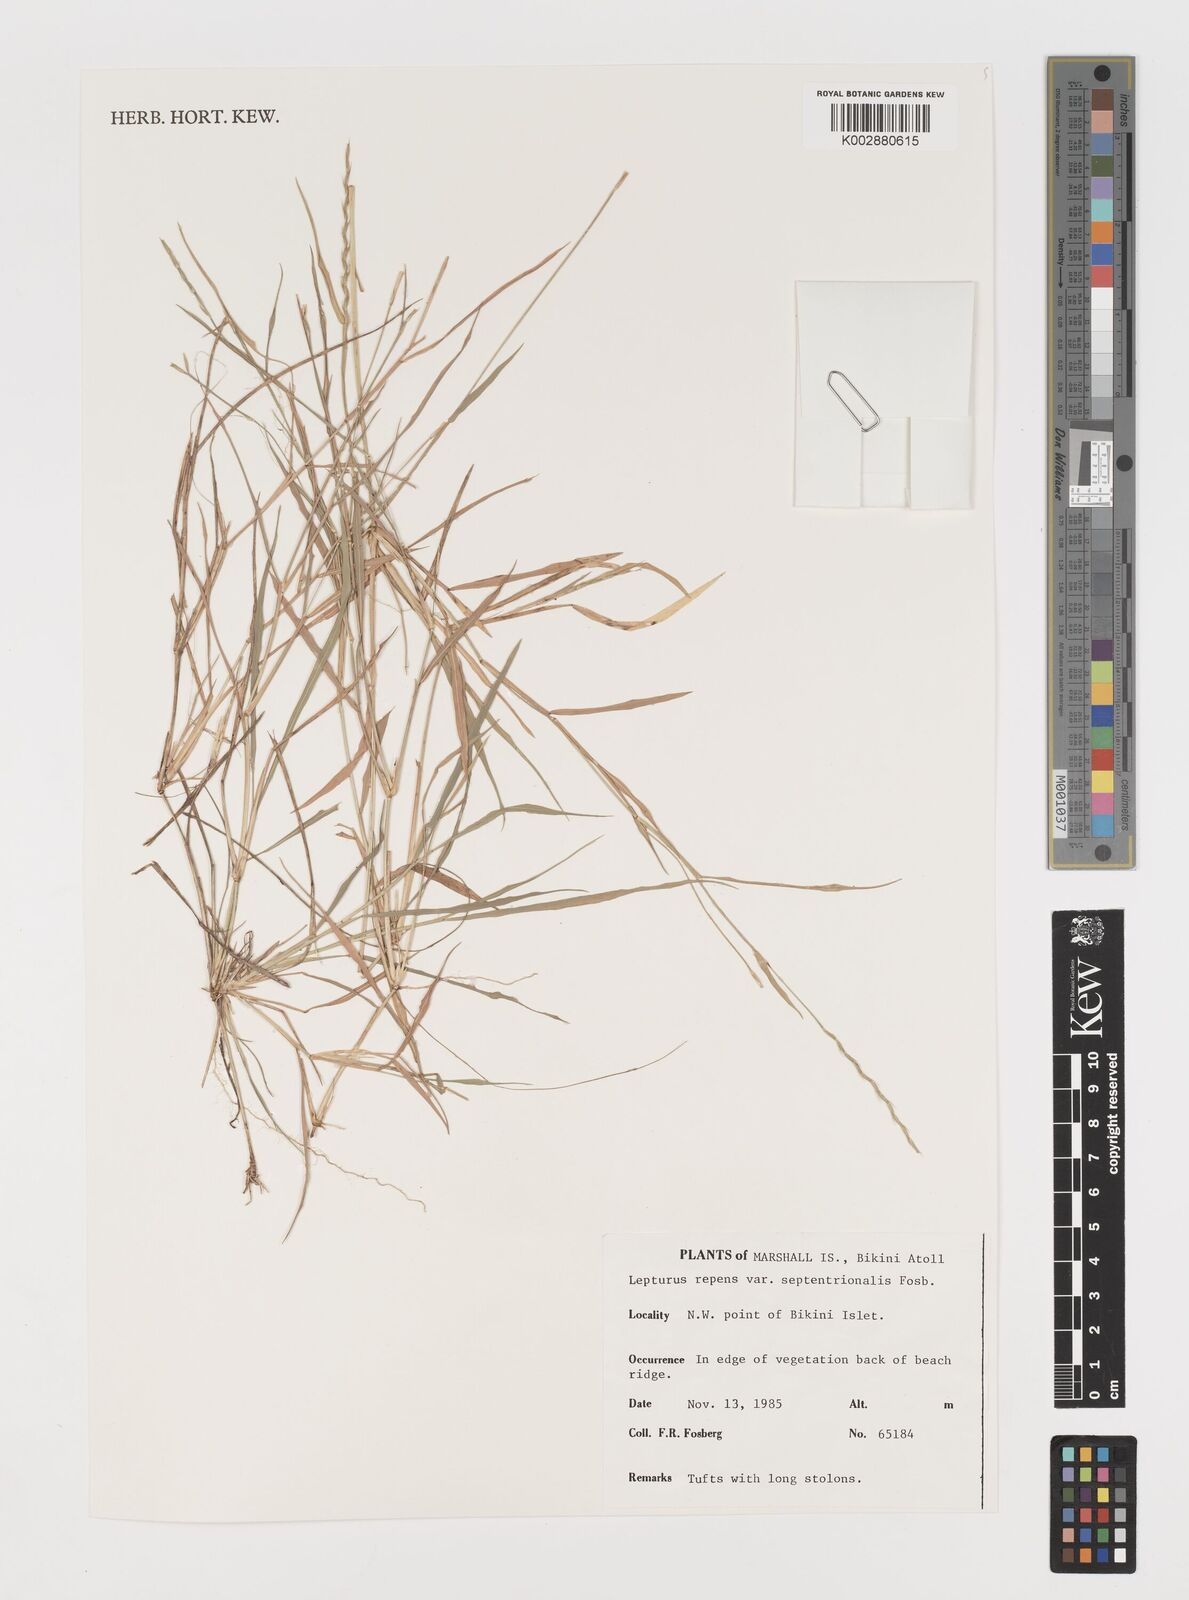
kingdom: Plantae
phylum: Tracheophyta
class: Liliopsida
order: Poales
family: Poaceae
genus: Lepturus
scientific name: Lepturus repens
